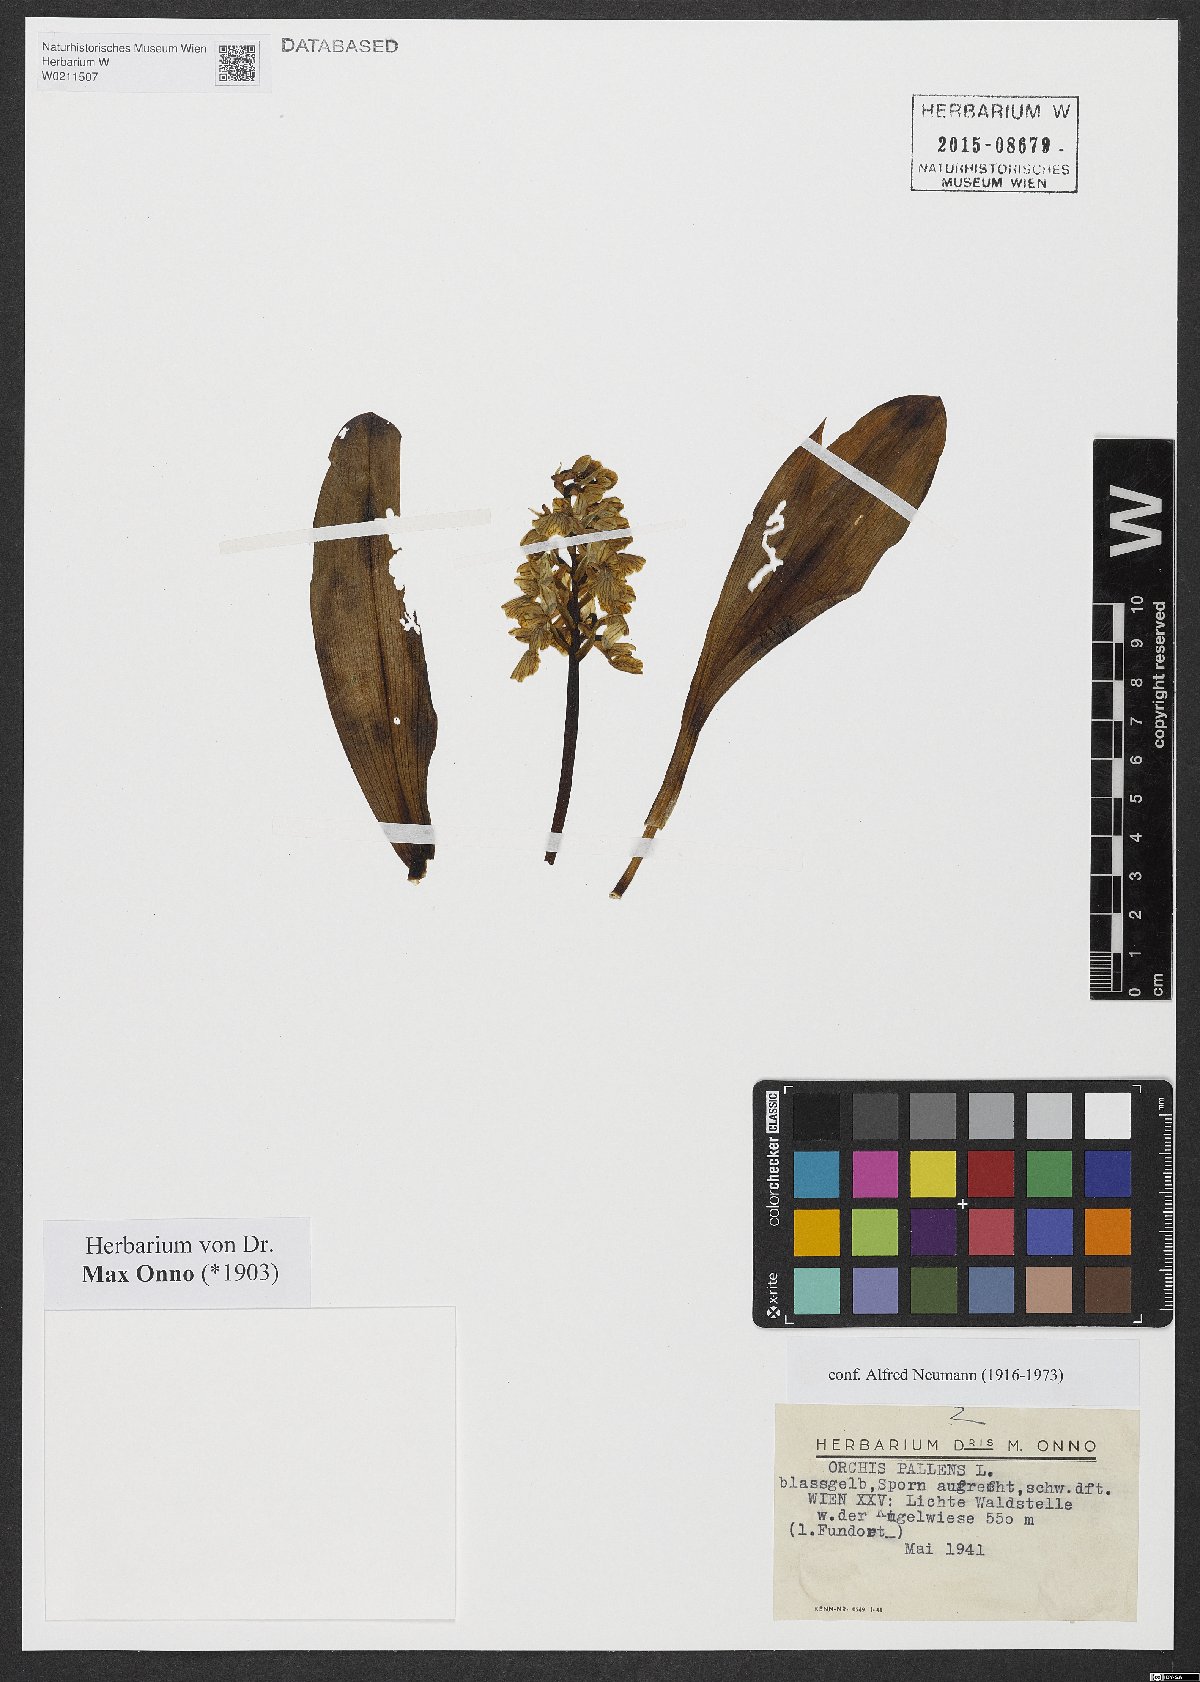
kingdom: Plantae
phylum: Tracheophyta
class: Liliopsida
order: Asparagales
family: Orchidaceae
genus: Orchis
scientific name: Orchis pallens
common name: Pale-flowered orchid
